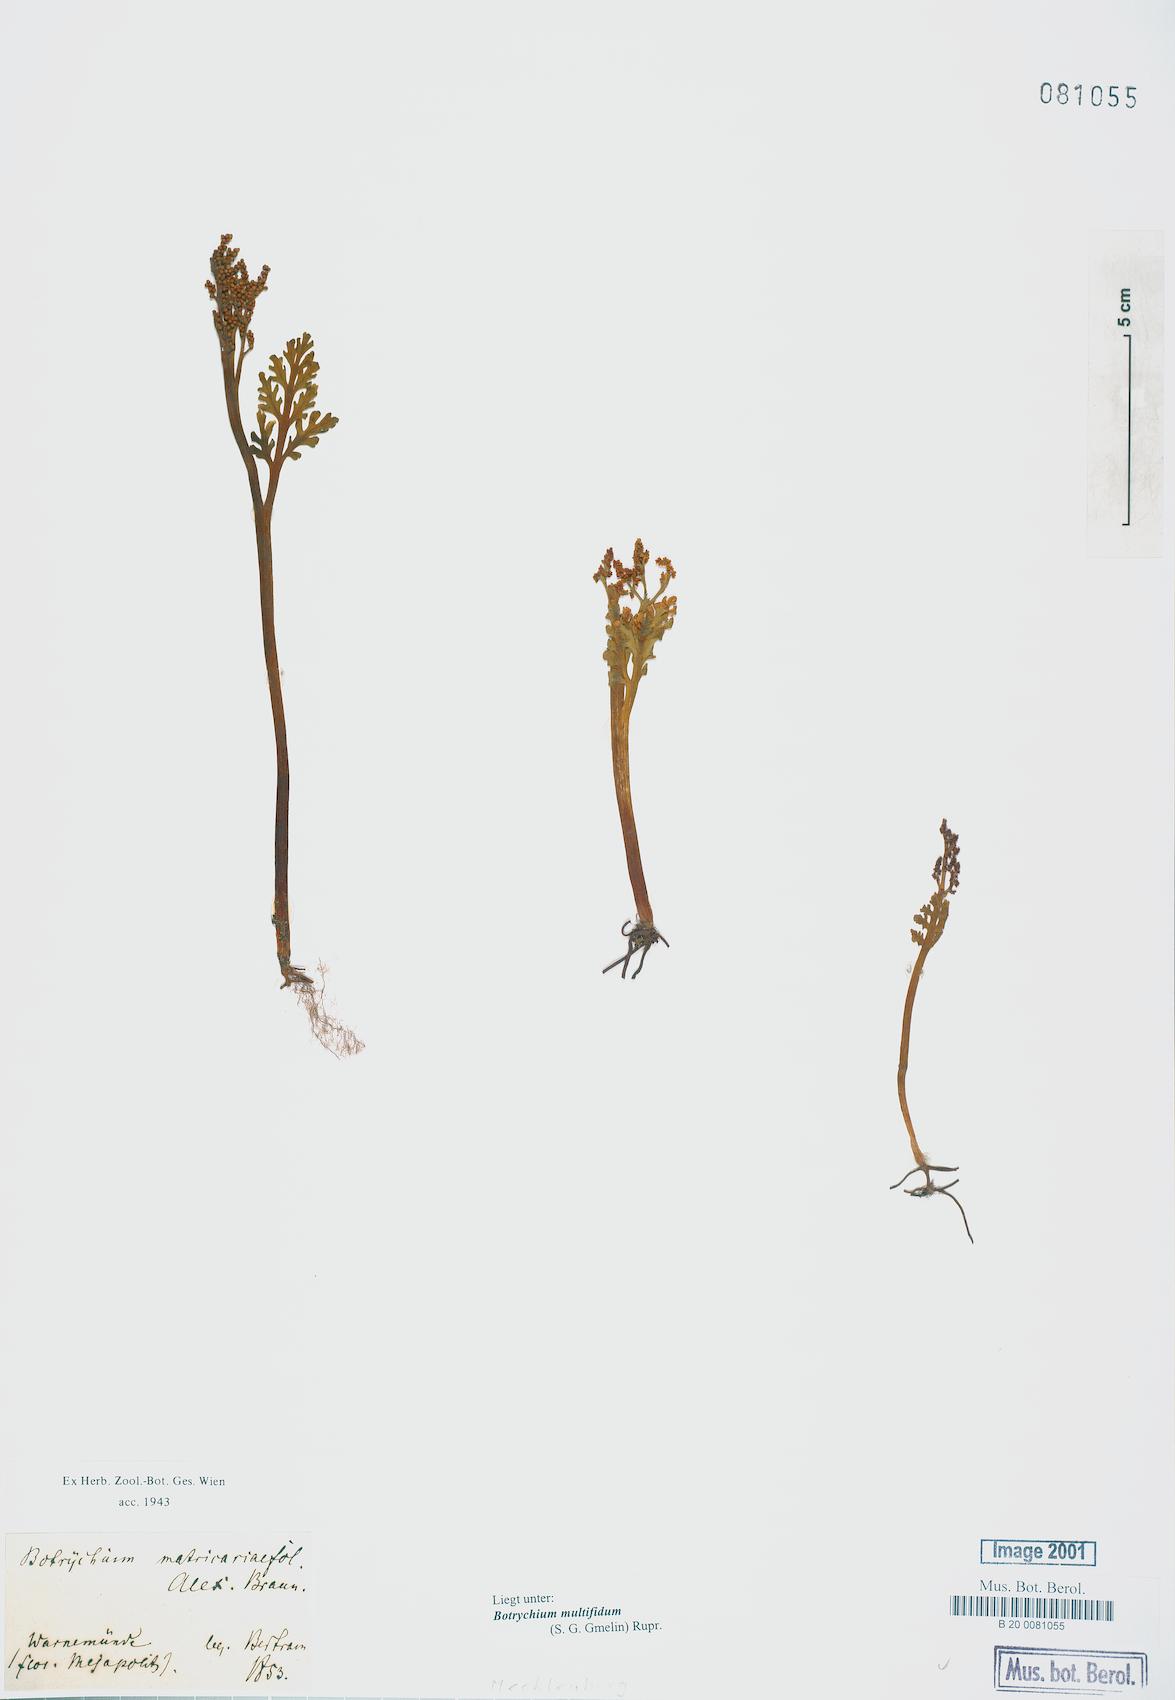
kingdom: Plantae
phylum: Tracheophyta
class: Polypodiopsida
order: Ophioglossales
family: Ophioglossaceae
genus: Botrychium
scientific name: Botrychium matricariifolium
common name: Branched moonwort
